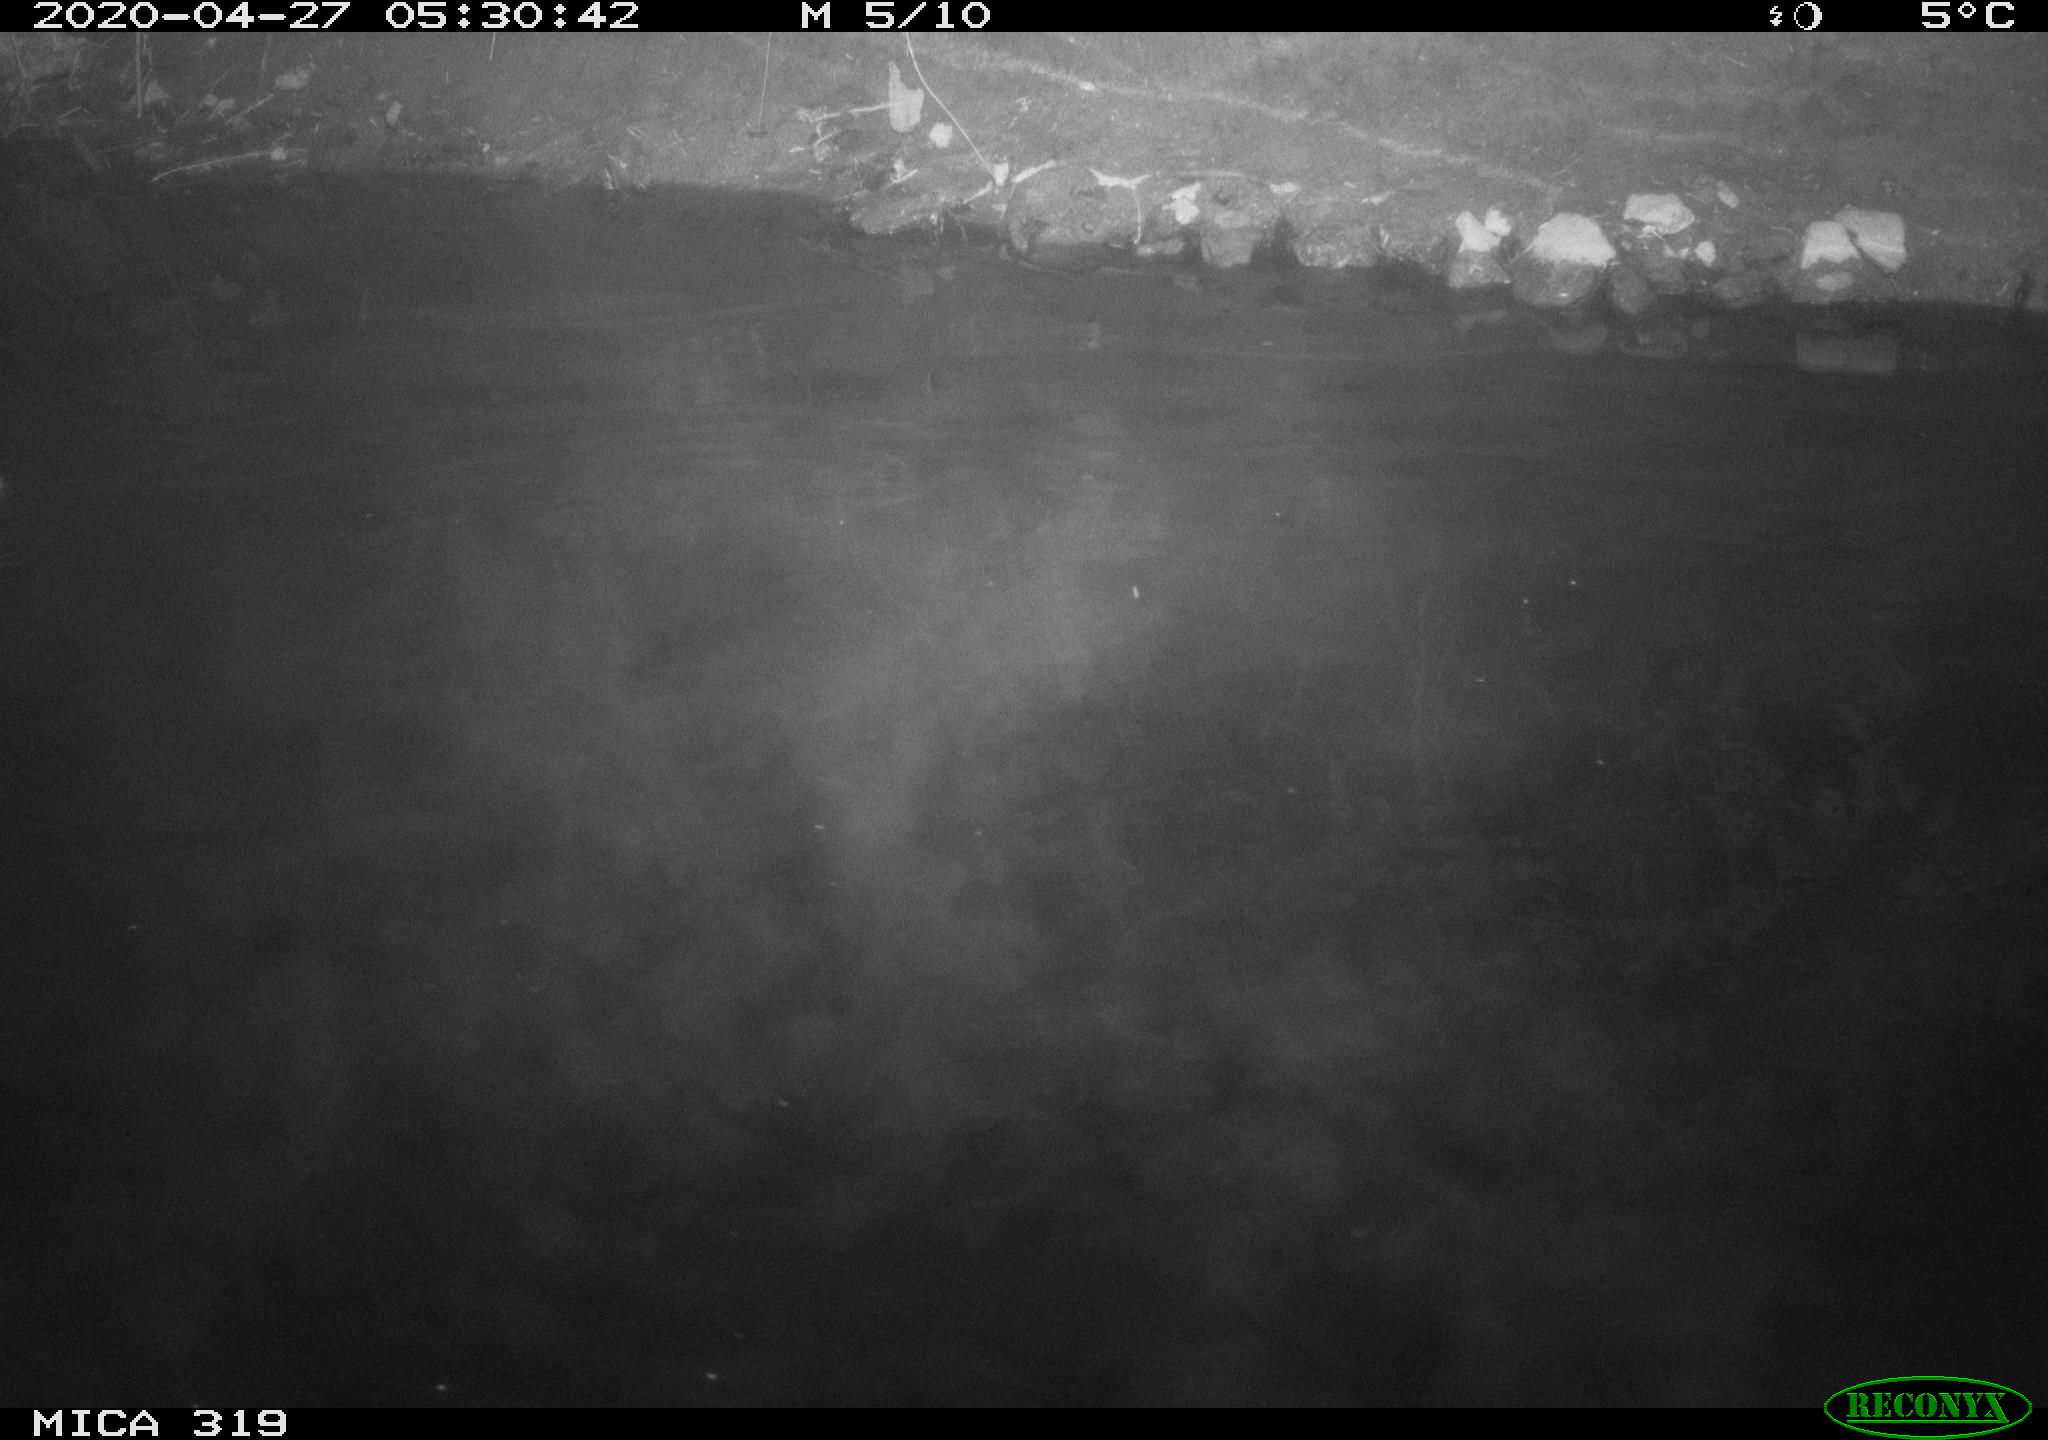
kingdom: Animalia
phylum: Chordata
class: Aves
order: Anseriformes
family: Anatidae
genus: Anas
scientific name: Anas platyrhynchos
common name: Mallard
